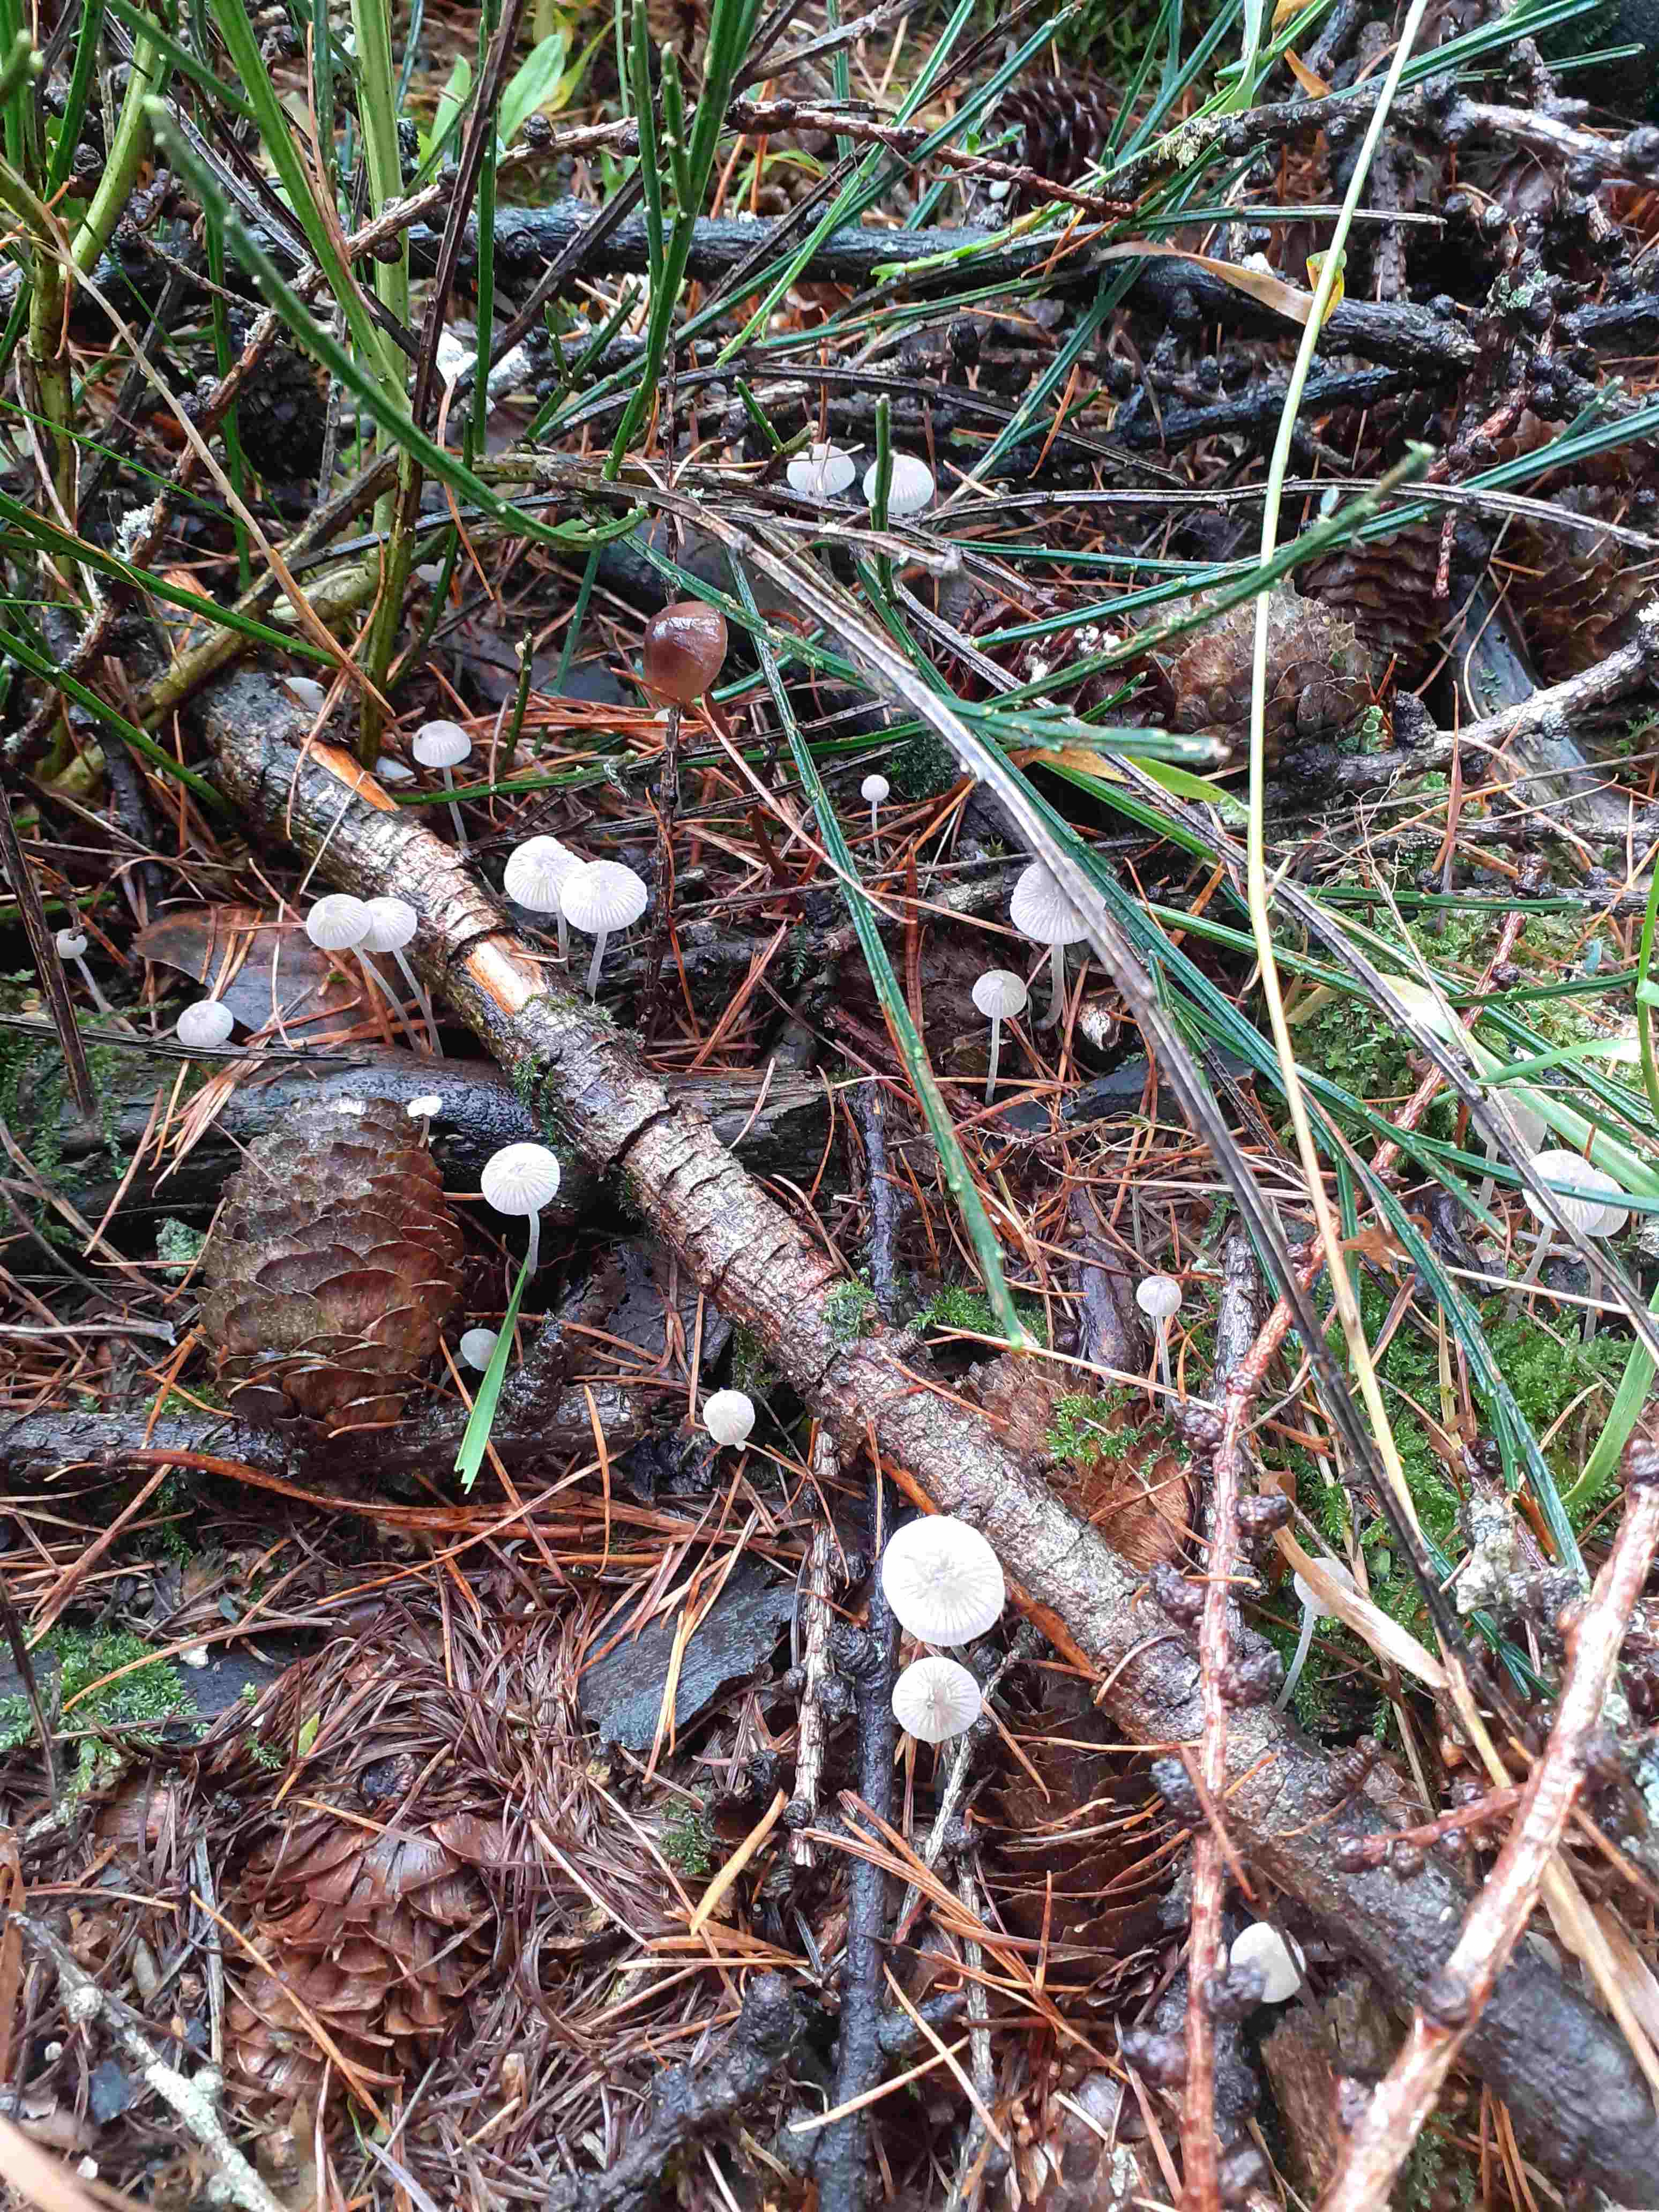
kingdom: Fungi
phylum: Basidiomycota
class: Agaricomycetes
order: Agaricales
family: Mycenaceae
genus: Mycena
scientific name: Mycena cinerella
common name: mel-huesvamp
